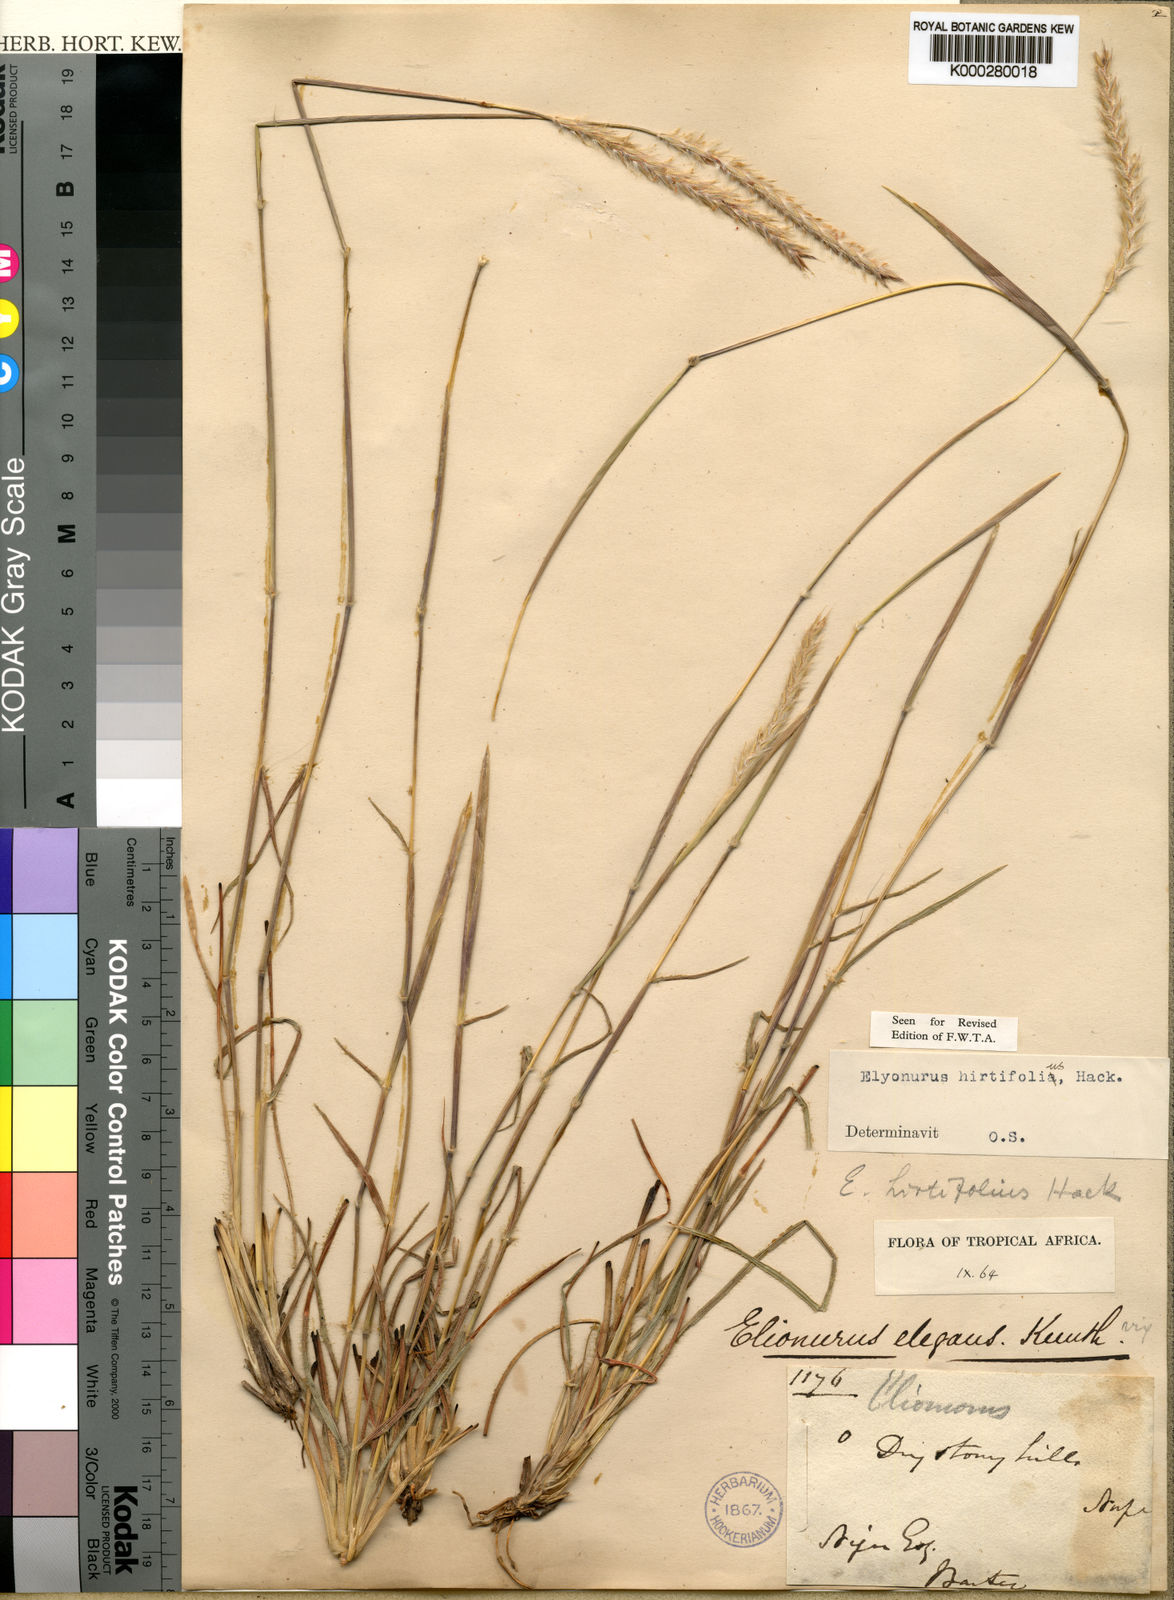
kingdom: Plantae
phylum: Tracheophyta
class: Liliopsida
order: Poales
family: Poaceae
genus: Elionurus
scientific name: Elionurus hirtifolius
